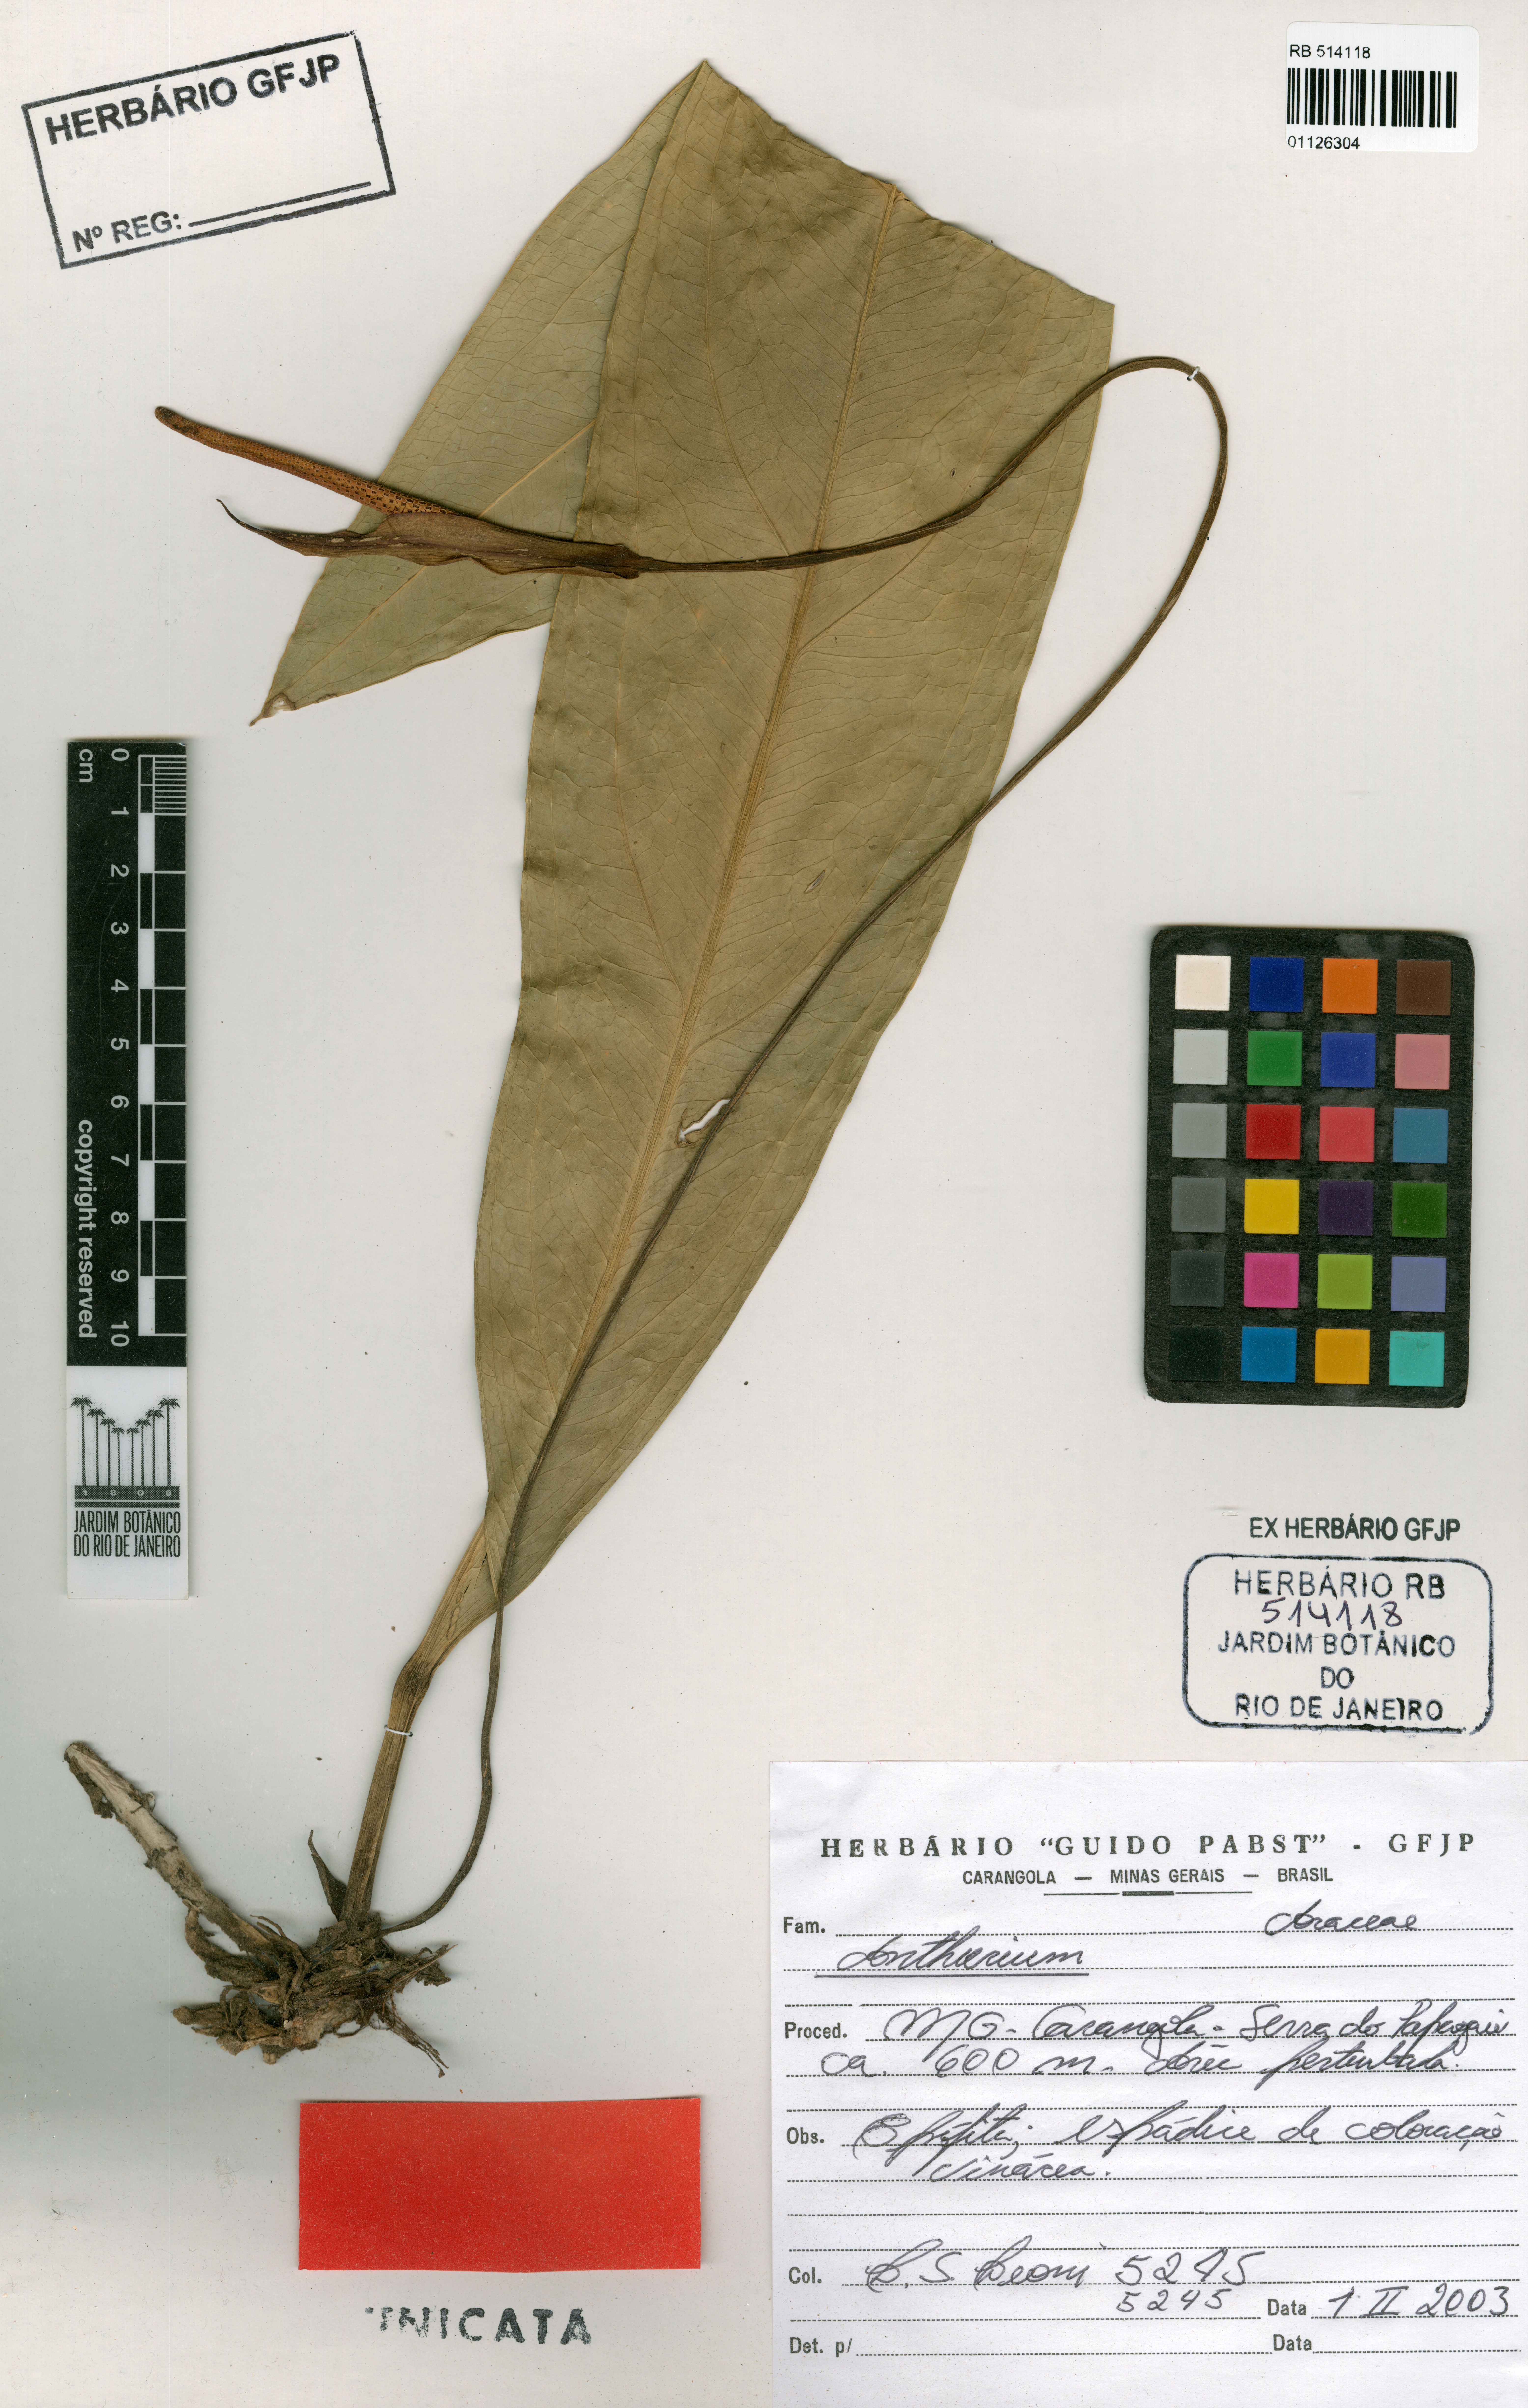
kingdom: Plantae
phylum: Tracheophyta
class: Liliopsida
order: Alismatales
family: Araceae
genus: Anthurium
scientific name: Anthurium santaritensis
